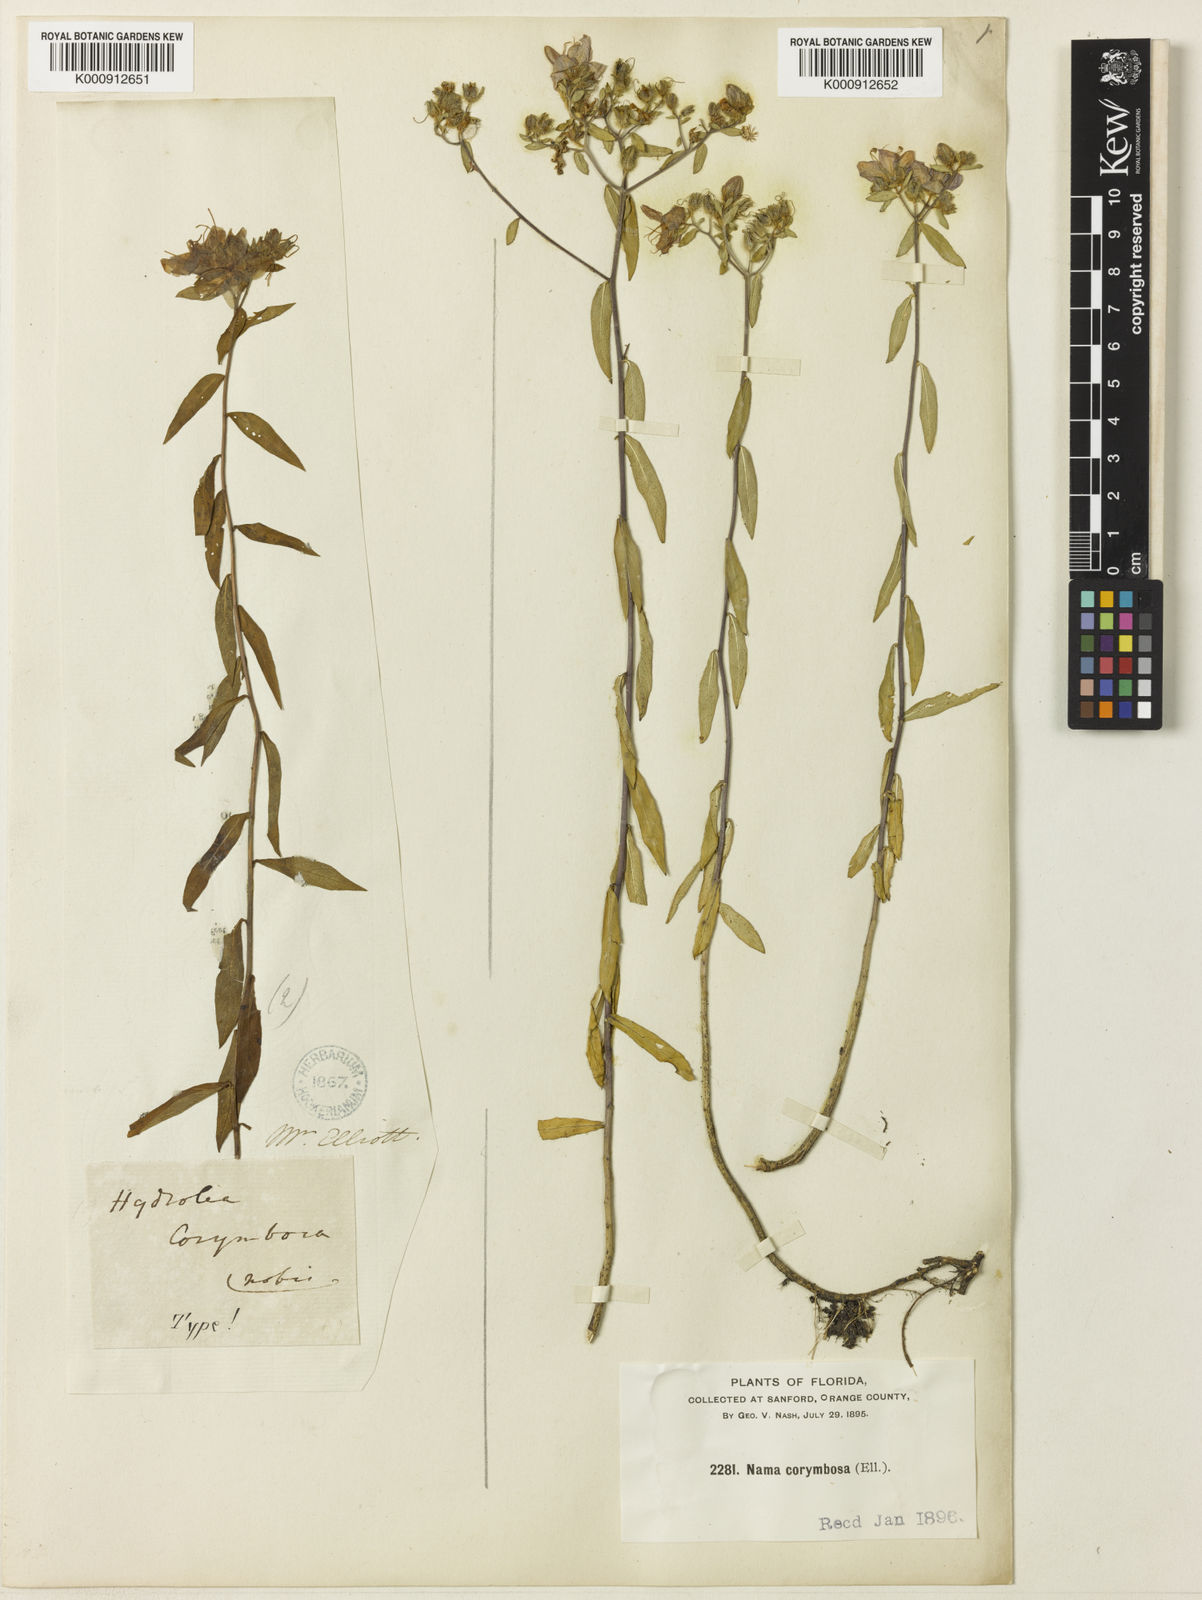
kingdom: Plantae
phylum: Tracheophyta
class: Magnoliopsida
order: Solanales
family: Hydroleaceae
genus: Hydrolea
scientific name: Hydrolea corymbosa
